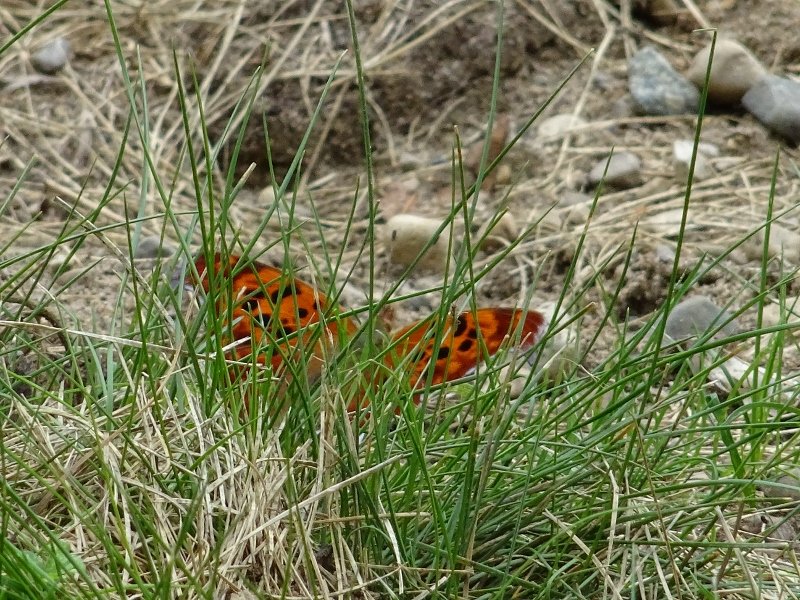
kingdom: Animalia
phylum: Arthropoda
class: Insecta
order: Lepidoptera
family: Nymphalidae
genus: Polygonia
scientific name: Polygonia interrogationis
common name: Question Mark
